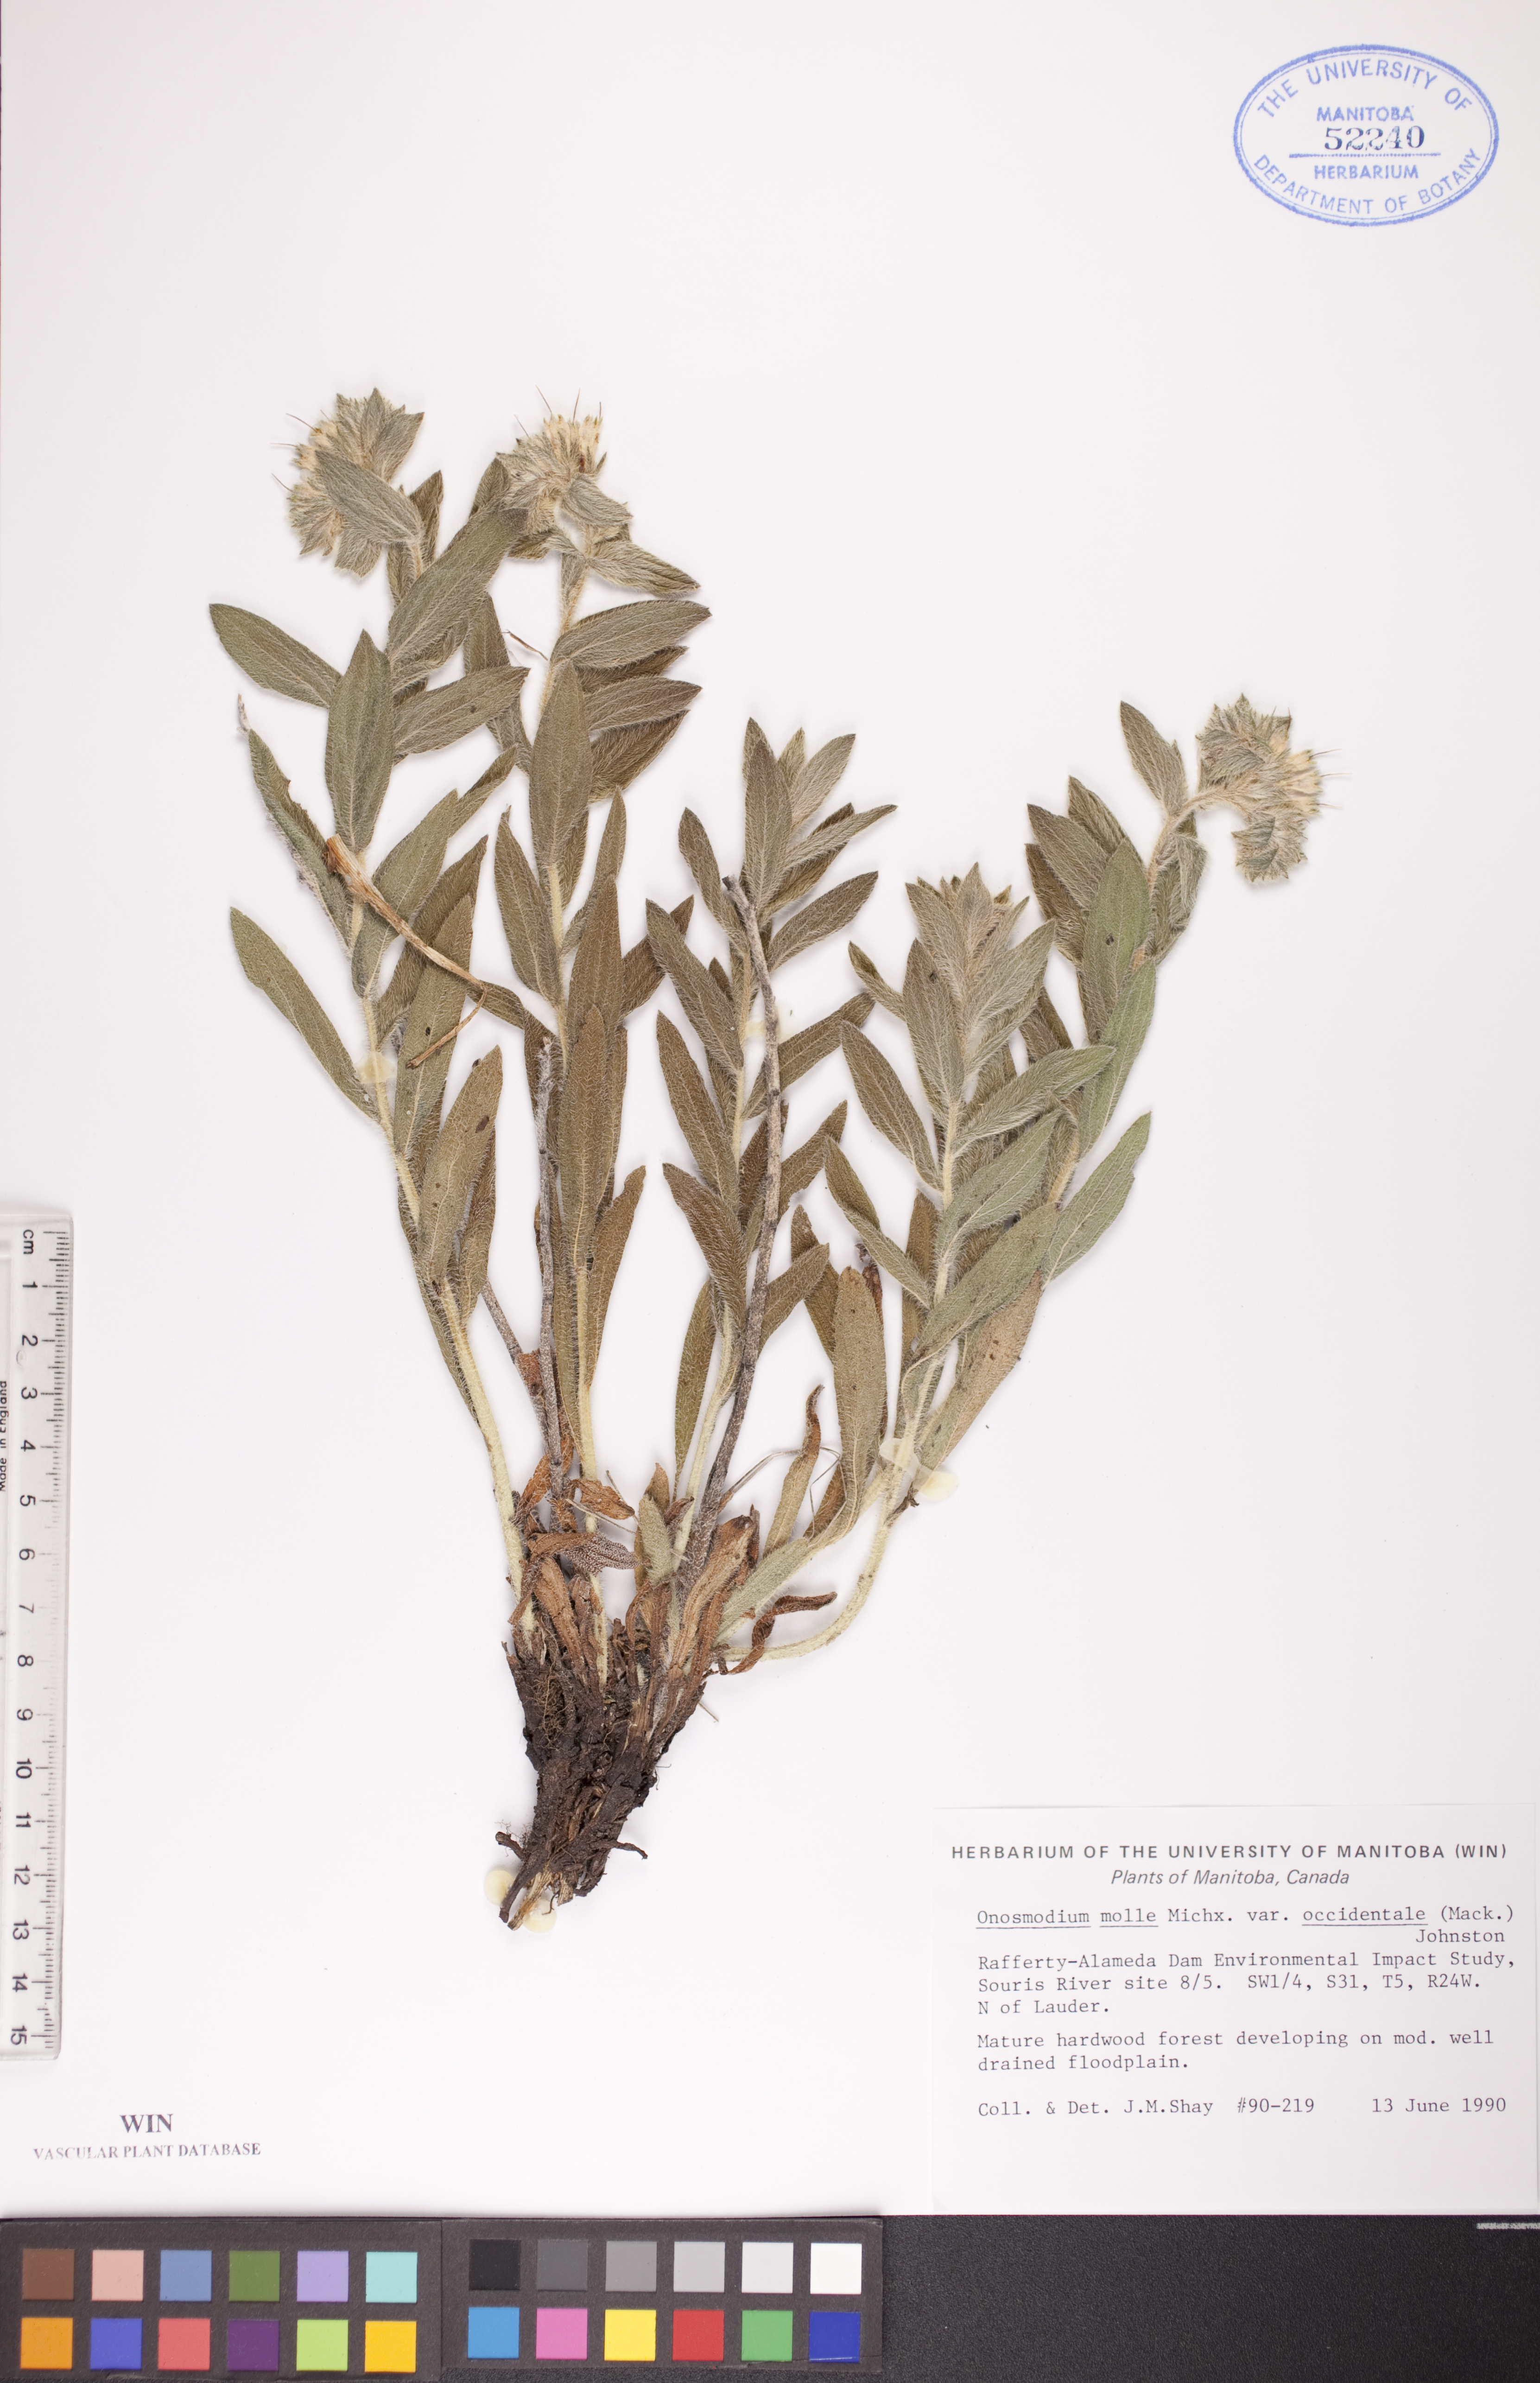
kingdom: Plantae
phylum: Tracheophyta
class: Magnoliopsida
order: Boraginales
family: Boraginaceae
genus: Lithospermum
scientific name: Lithospermum occidentale
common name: Western false gromwell
